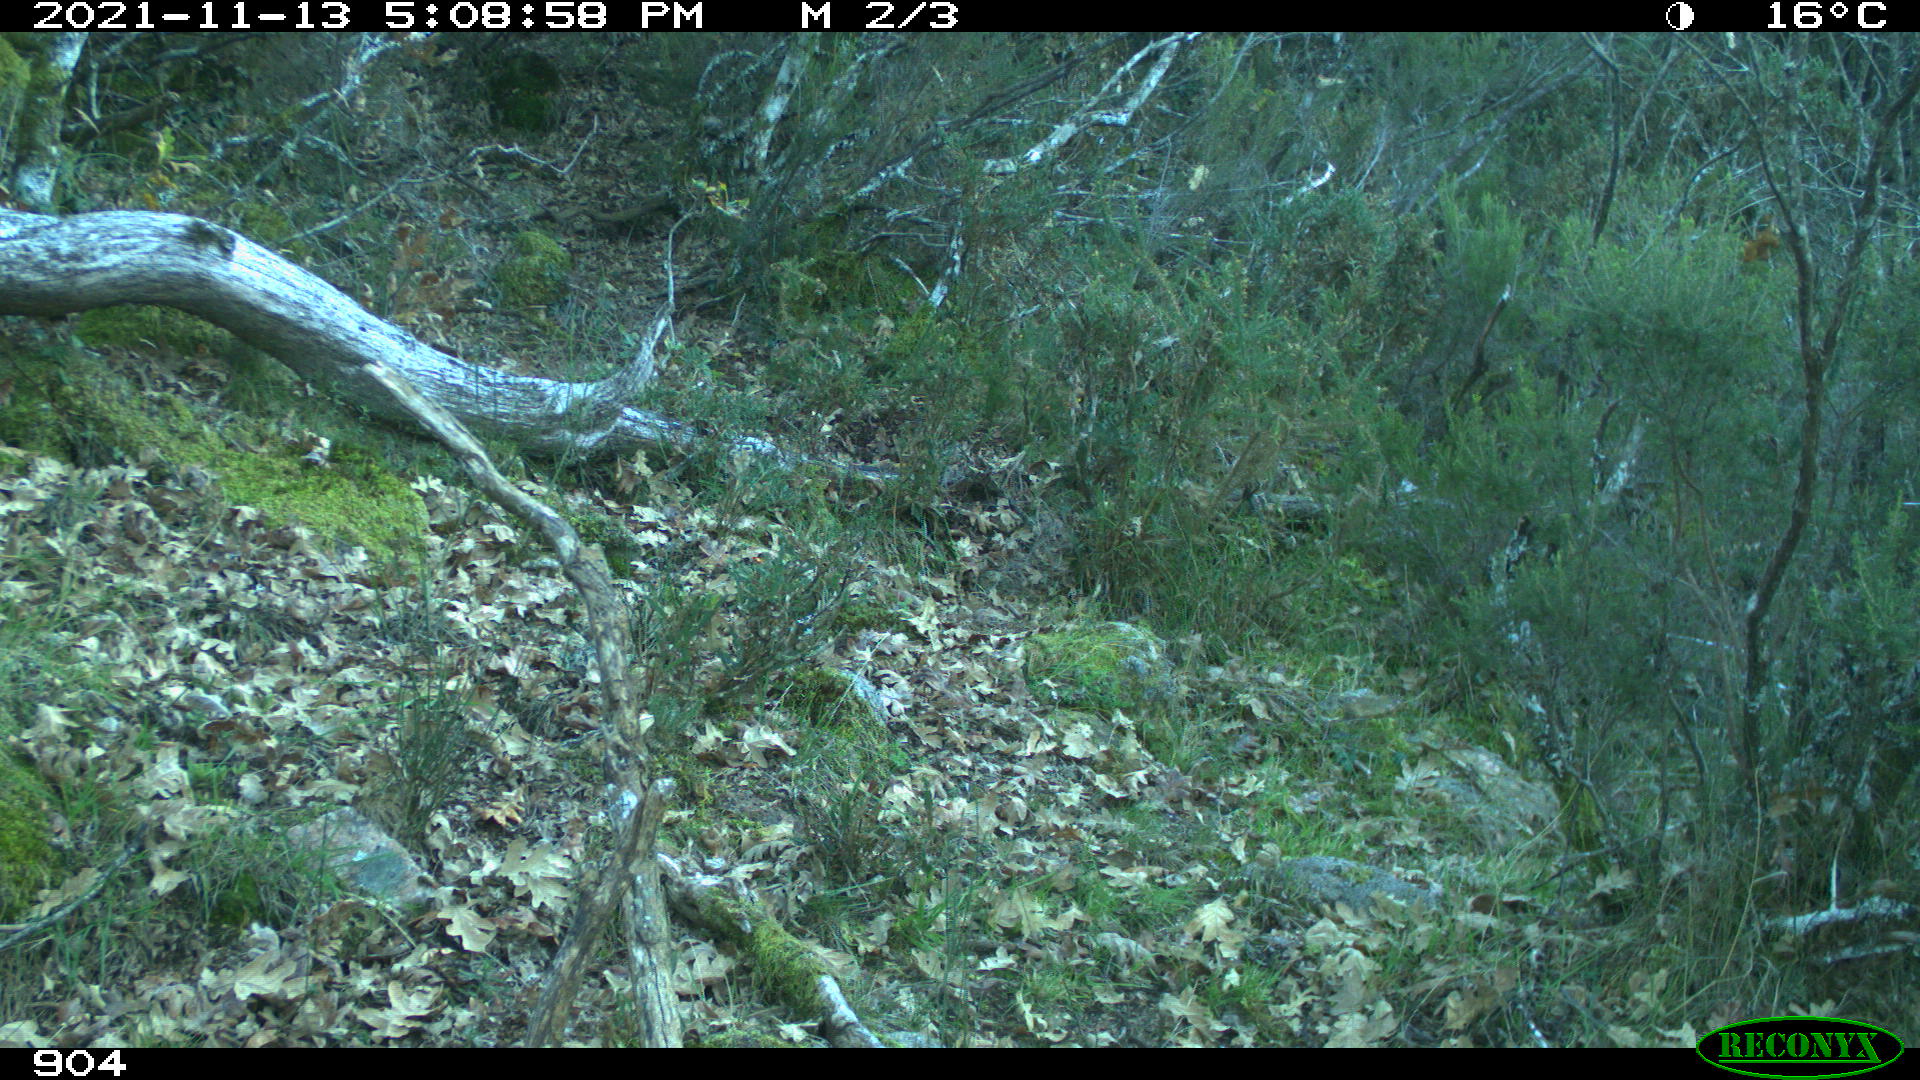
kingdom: Animalia
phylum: Chordata
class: Mammalia
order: Artiodactyla
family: Bovidae
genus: Bos
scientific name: Bos taurus
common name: Domesticated cattle
